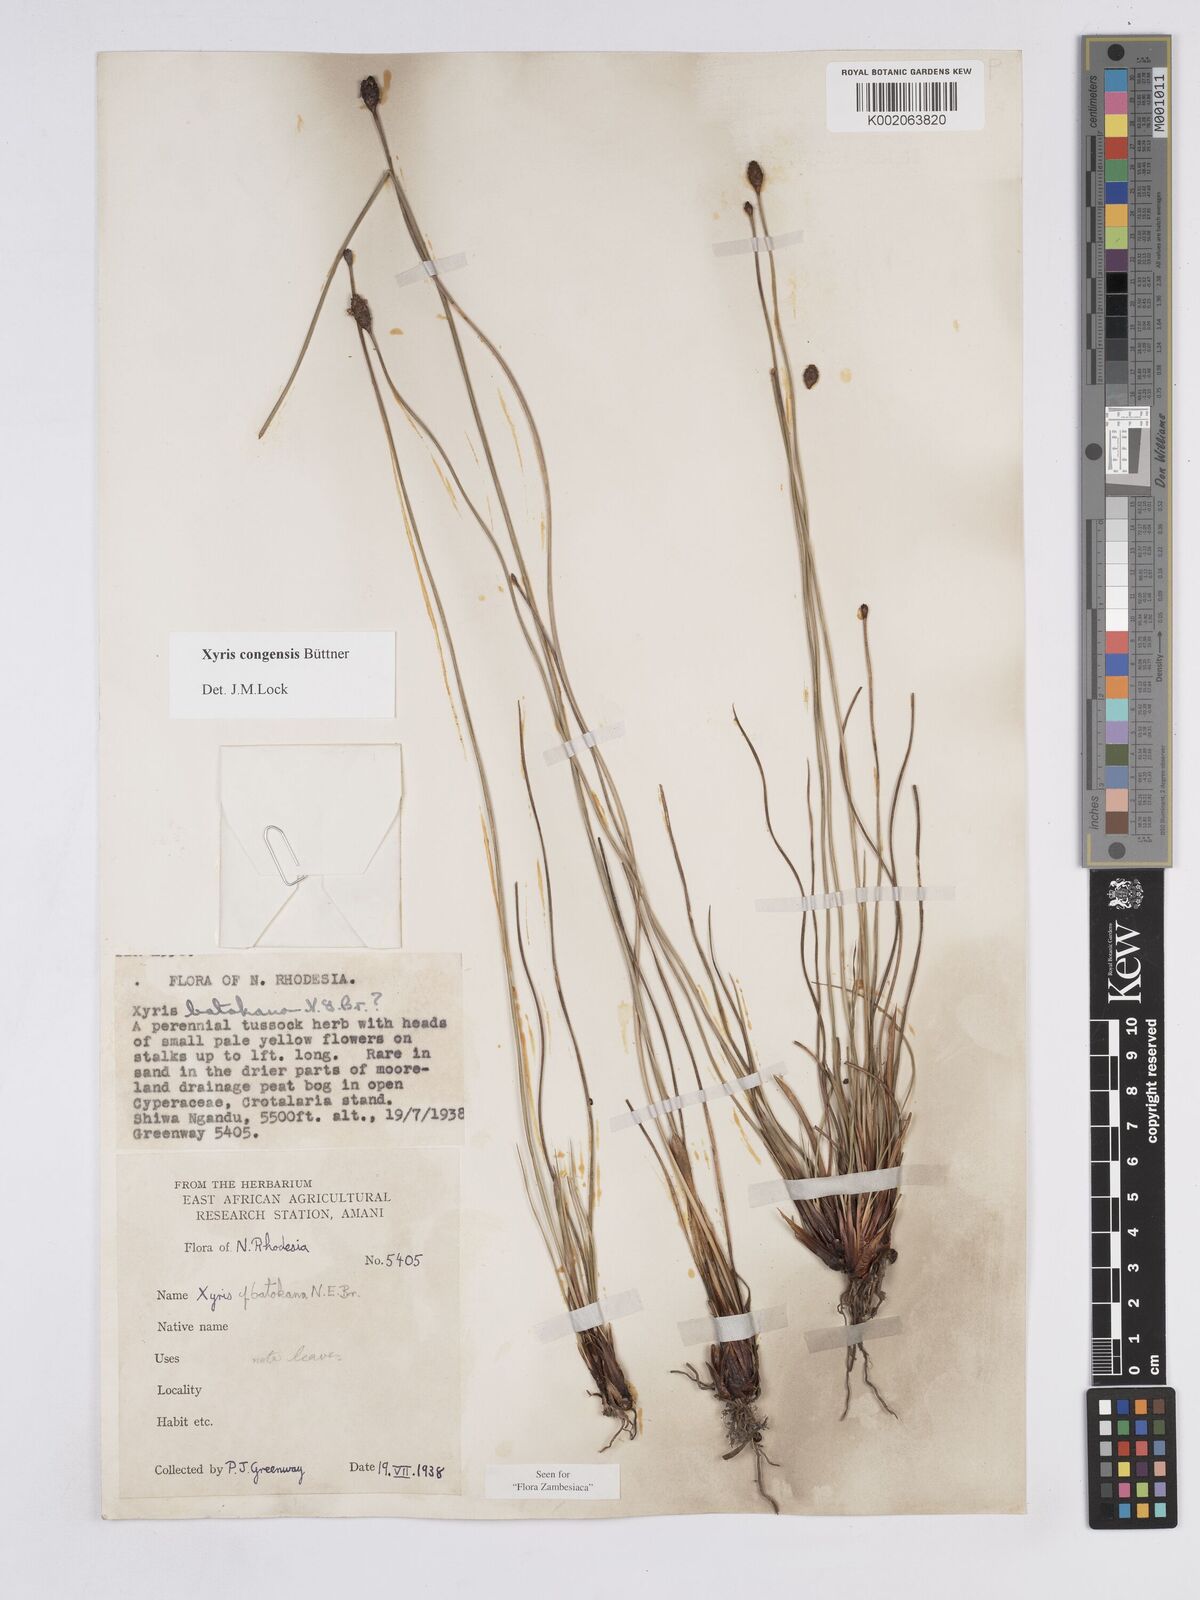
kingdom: Plantae
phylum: Tracheophyta
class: Liliopsida
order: Poales
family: Xyridaceae
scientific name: Xyridaceae
